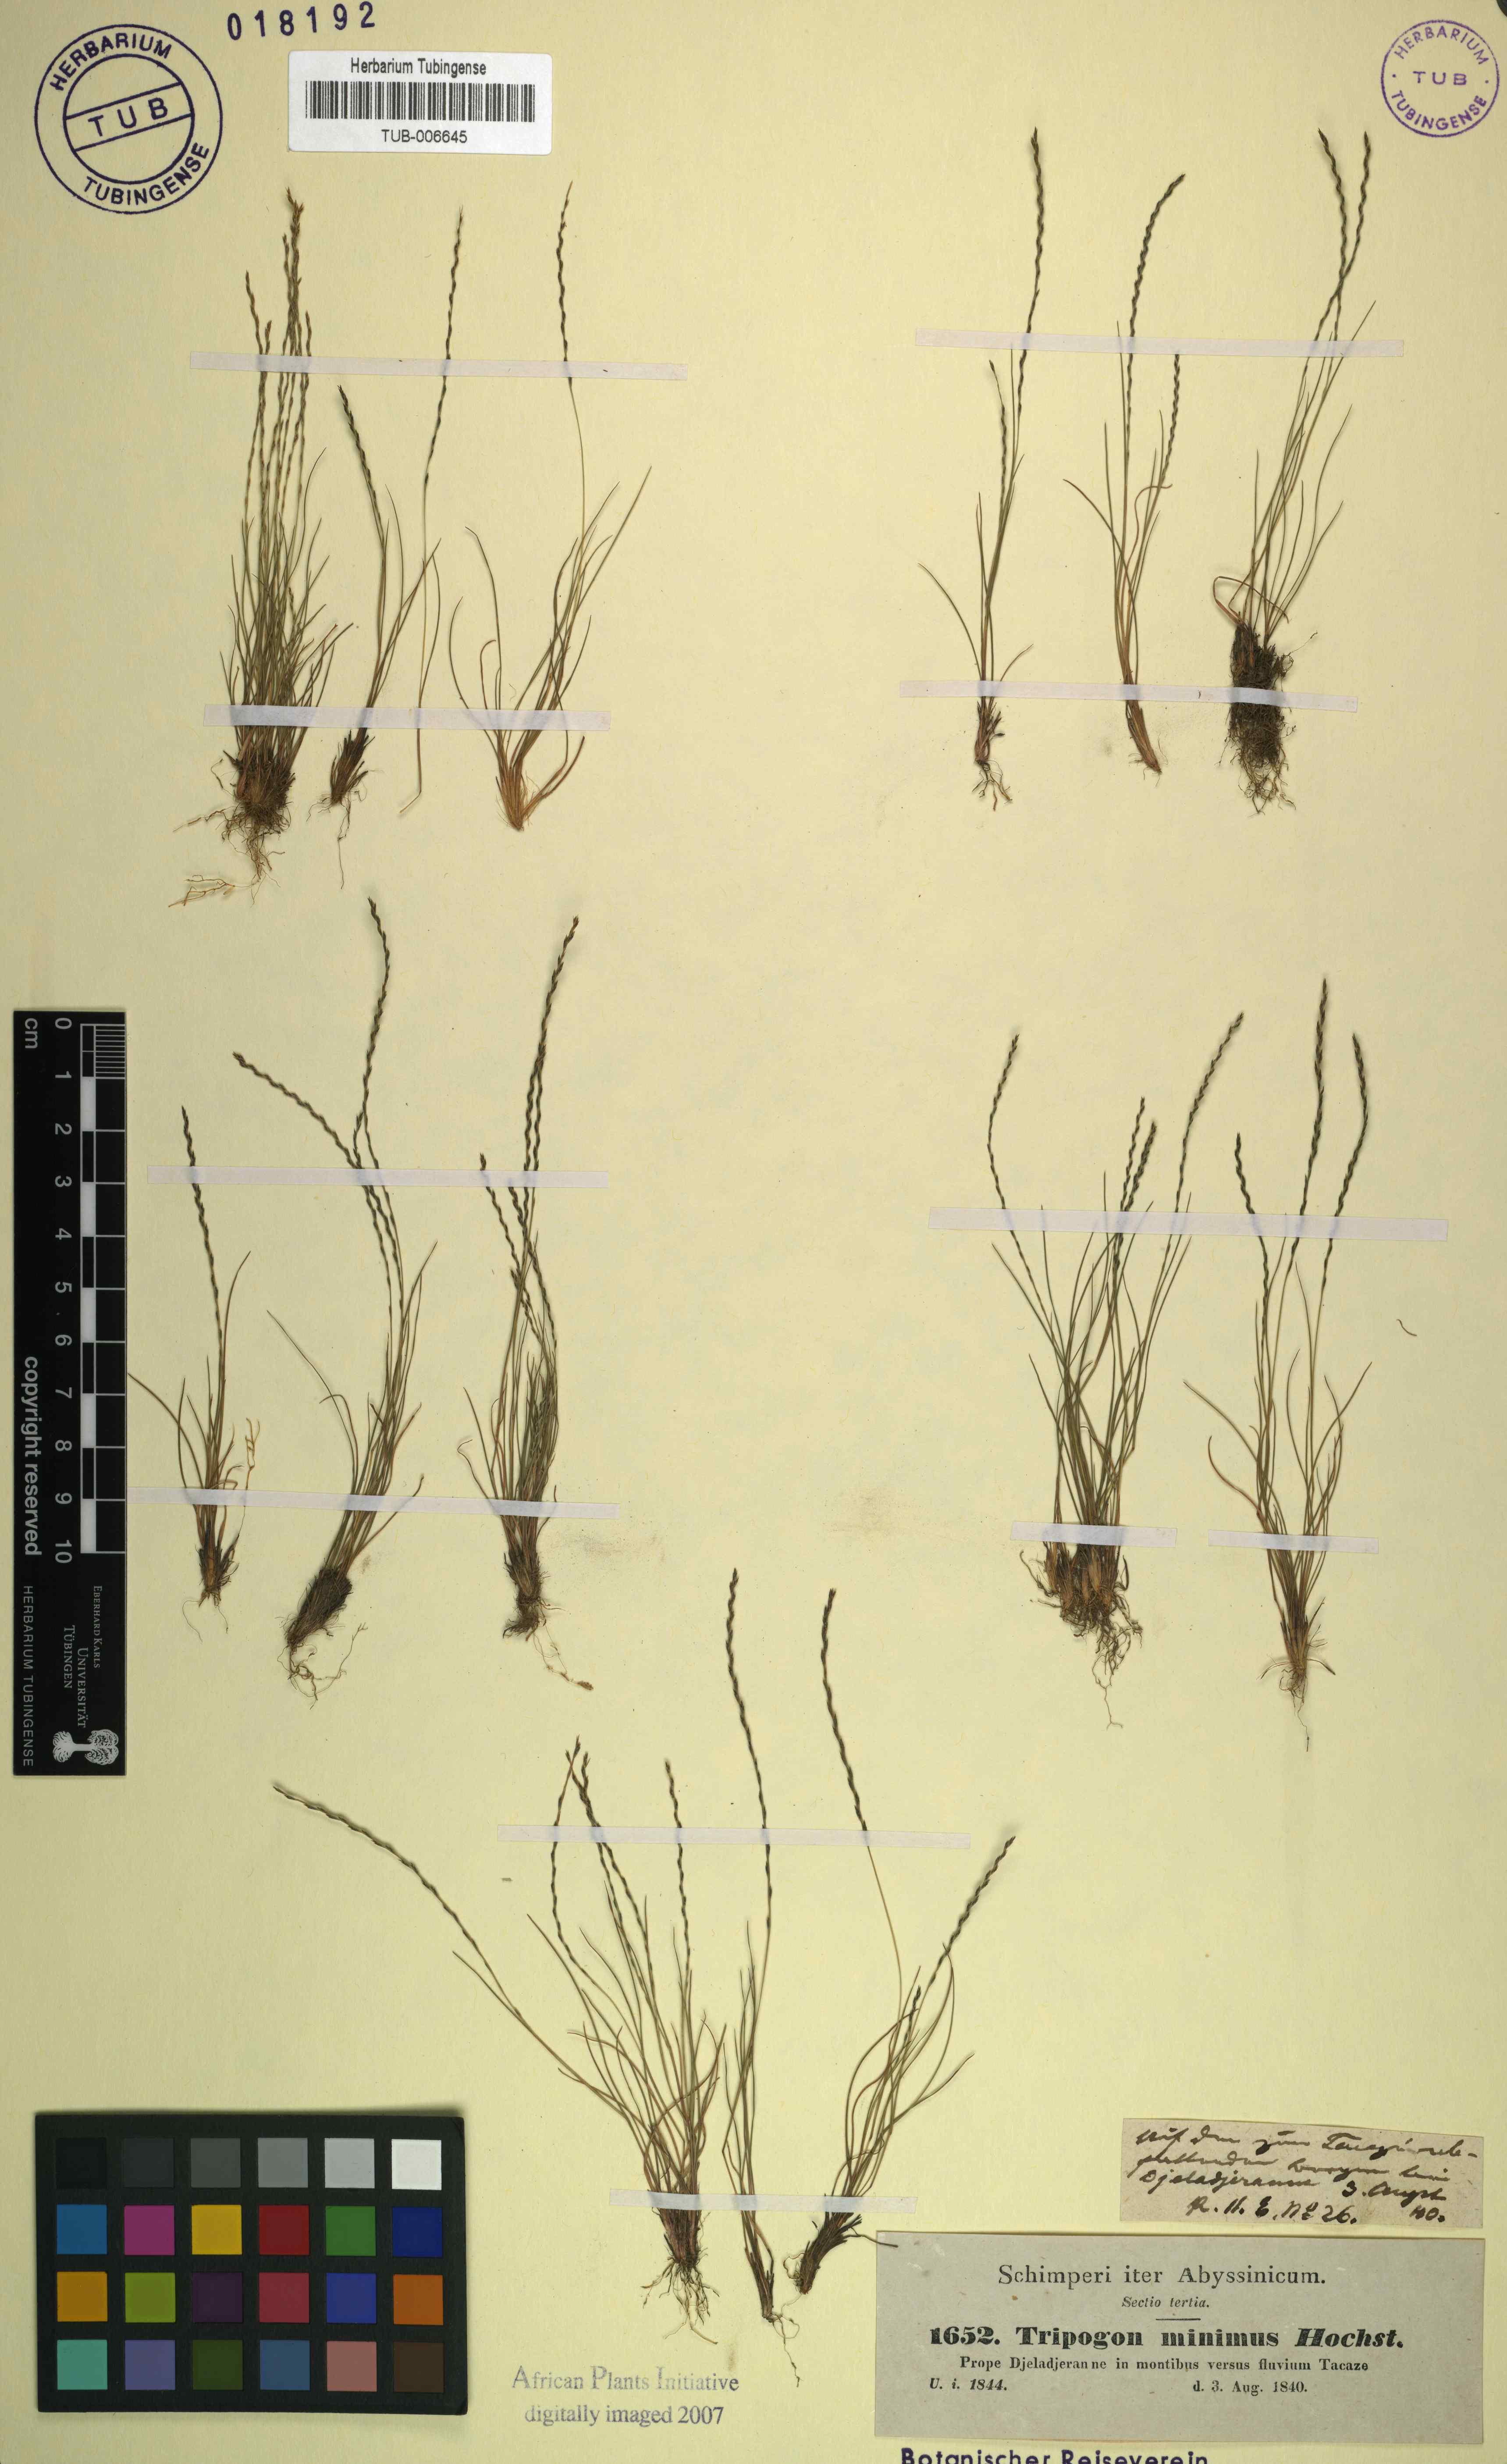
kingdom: Plantae
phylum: Tracheophyta
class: Liliopsida
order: Poales
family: Poaceae
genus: Tripogon
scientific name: Tripogon leptophyllus
